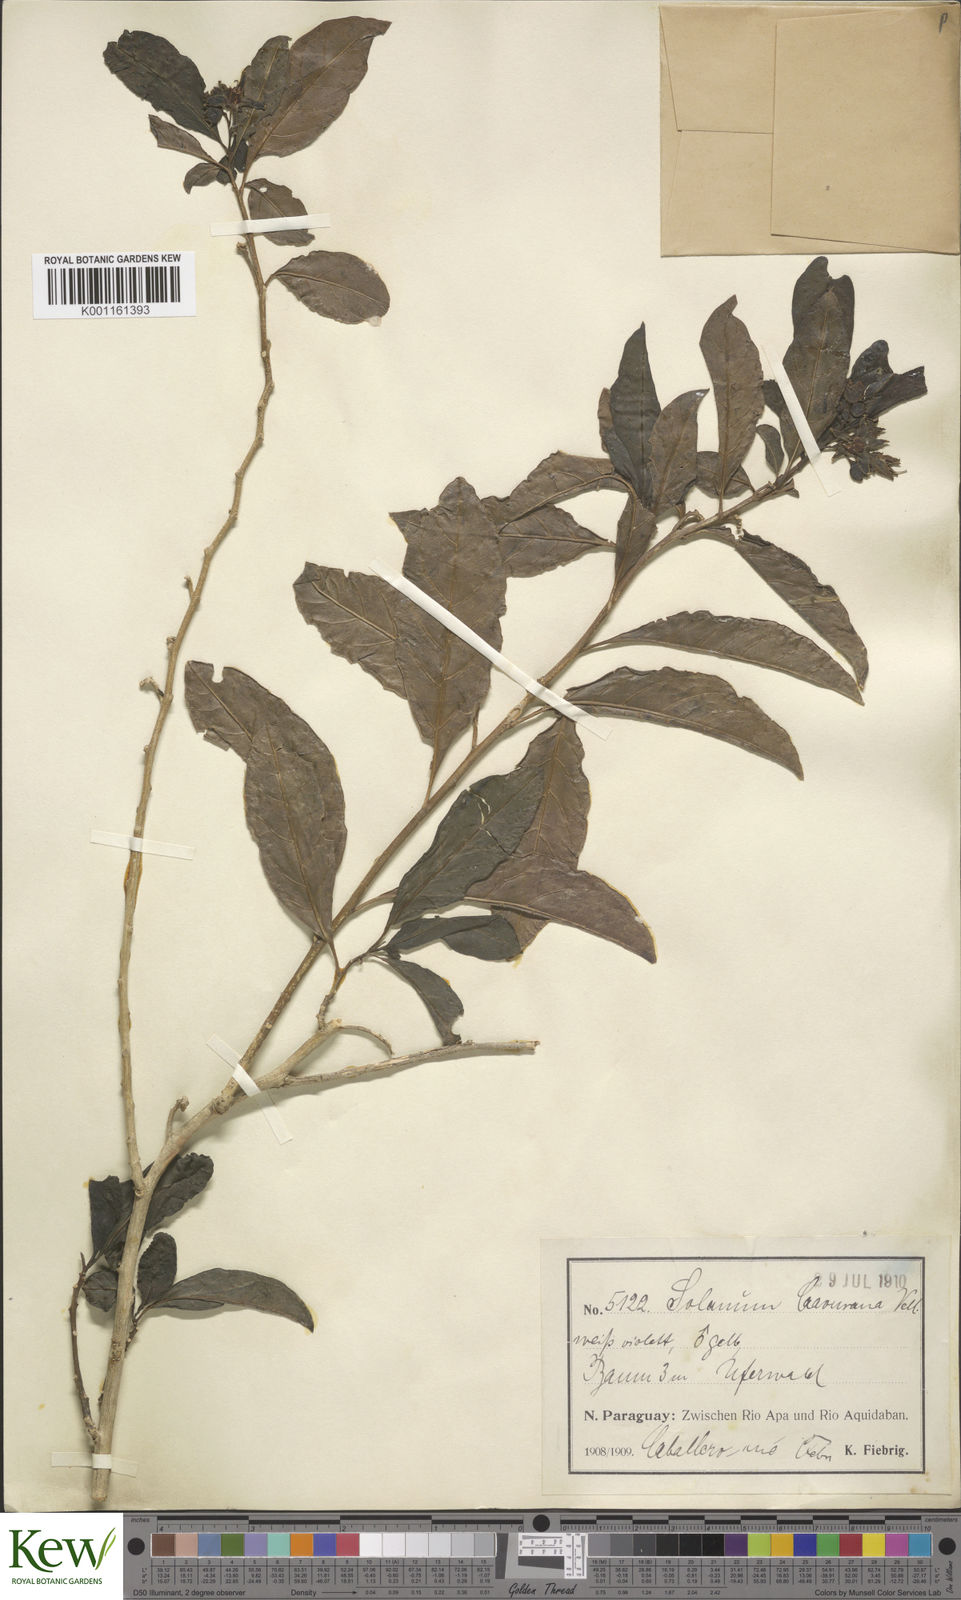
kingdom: Plantae
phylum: Tracheophyta
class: Magnoliopsida
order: Solanales
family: Solanaceae
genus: Solanum
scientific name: Solanum caavurana
